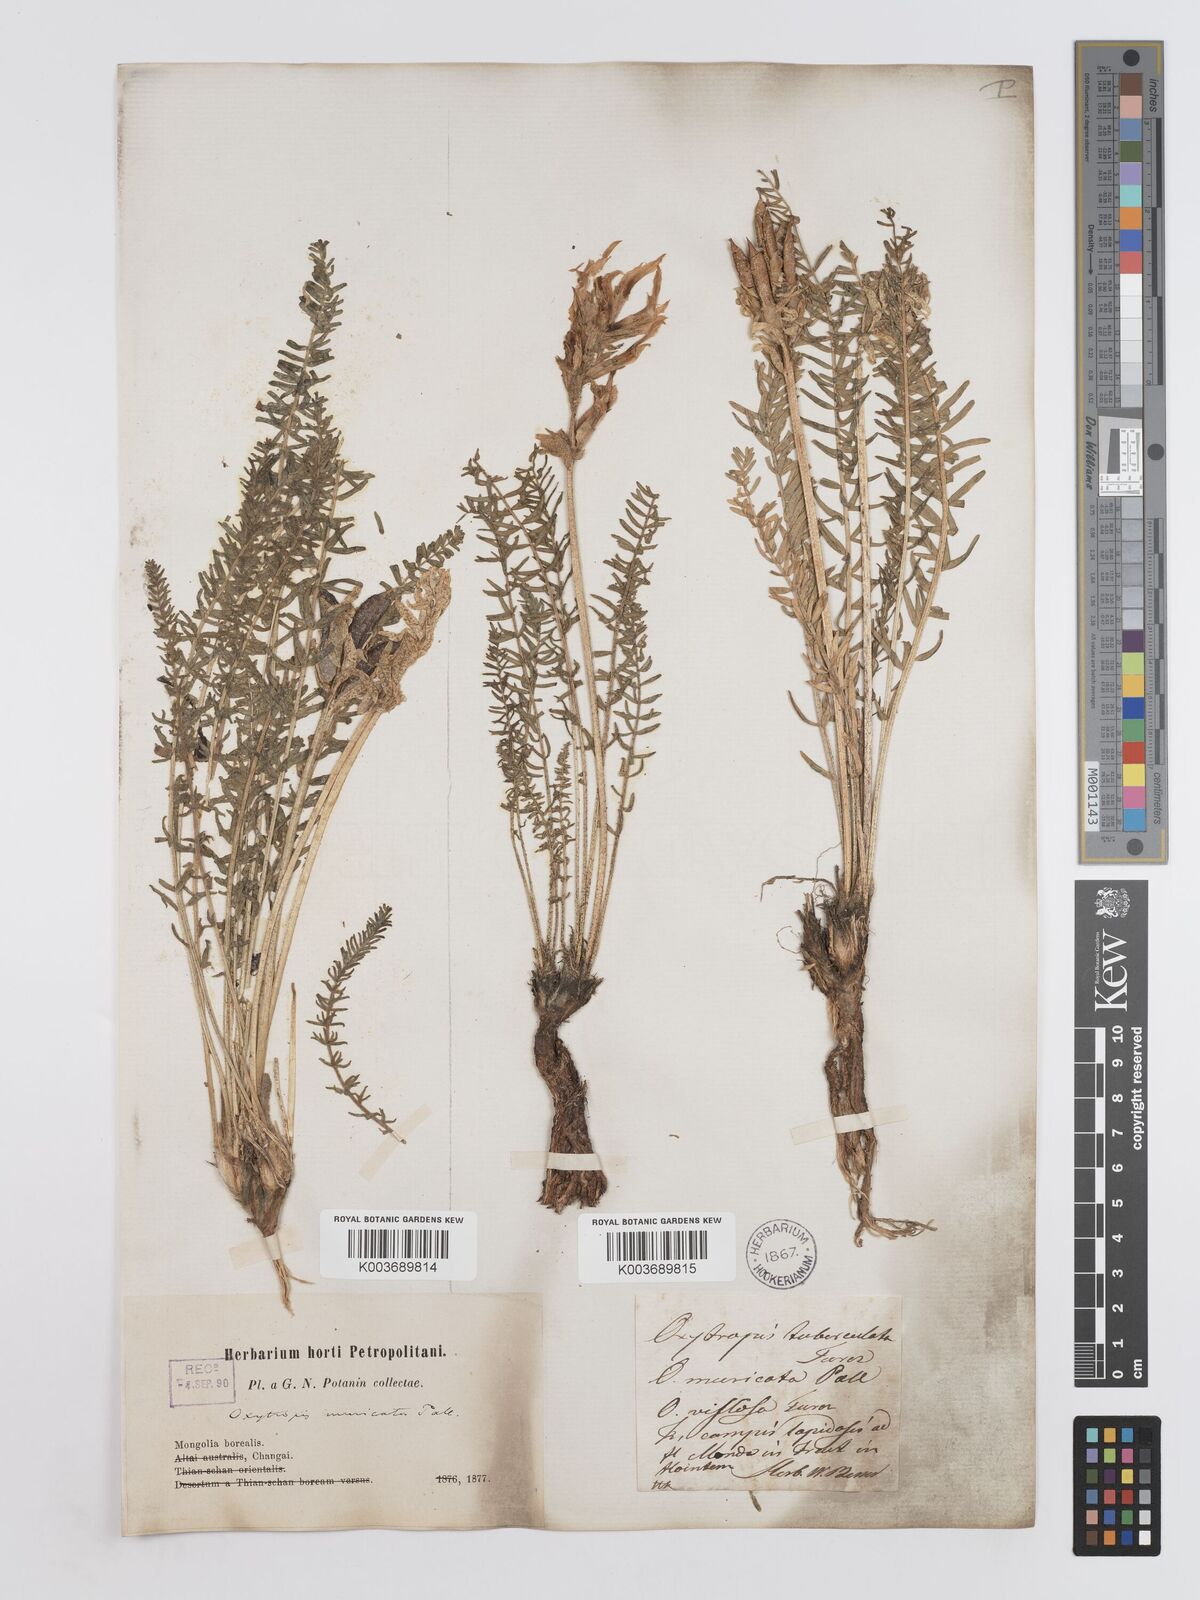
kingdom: Plantae
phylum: Tracheophyta
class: Magnoliopsida
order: Fabales
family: Fabaceae
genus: Oxytropis
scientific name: Oxytropis muricata
